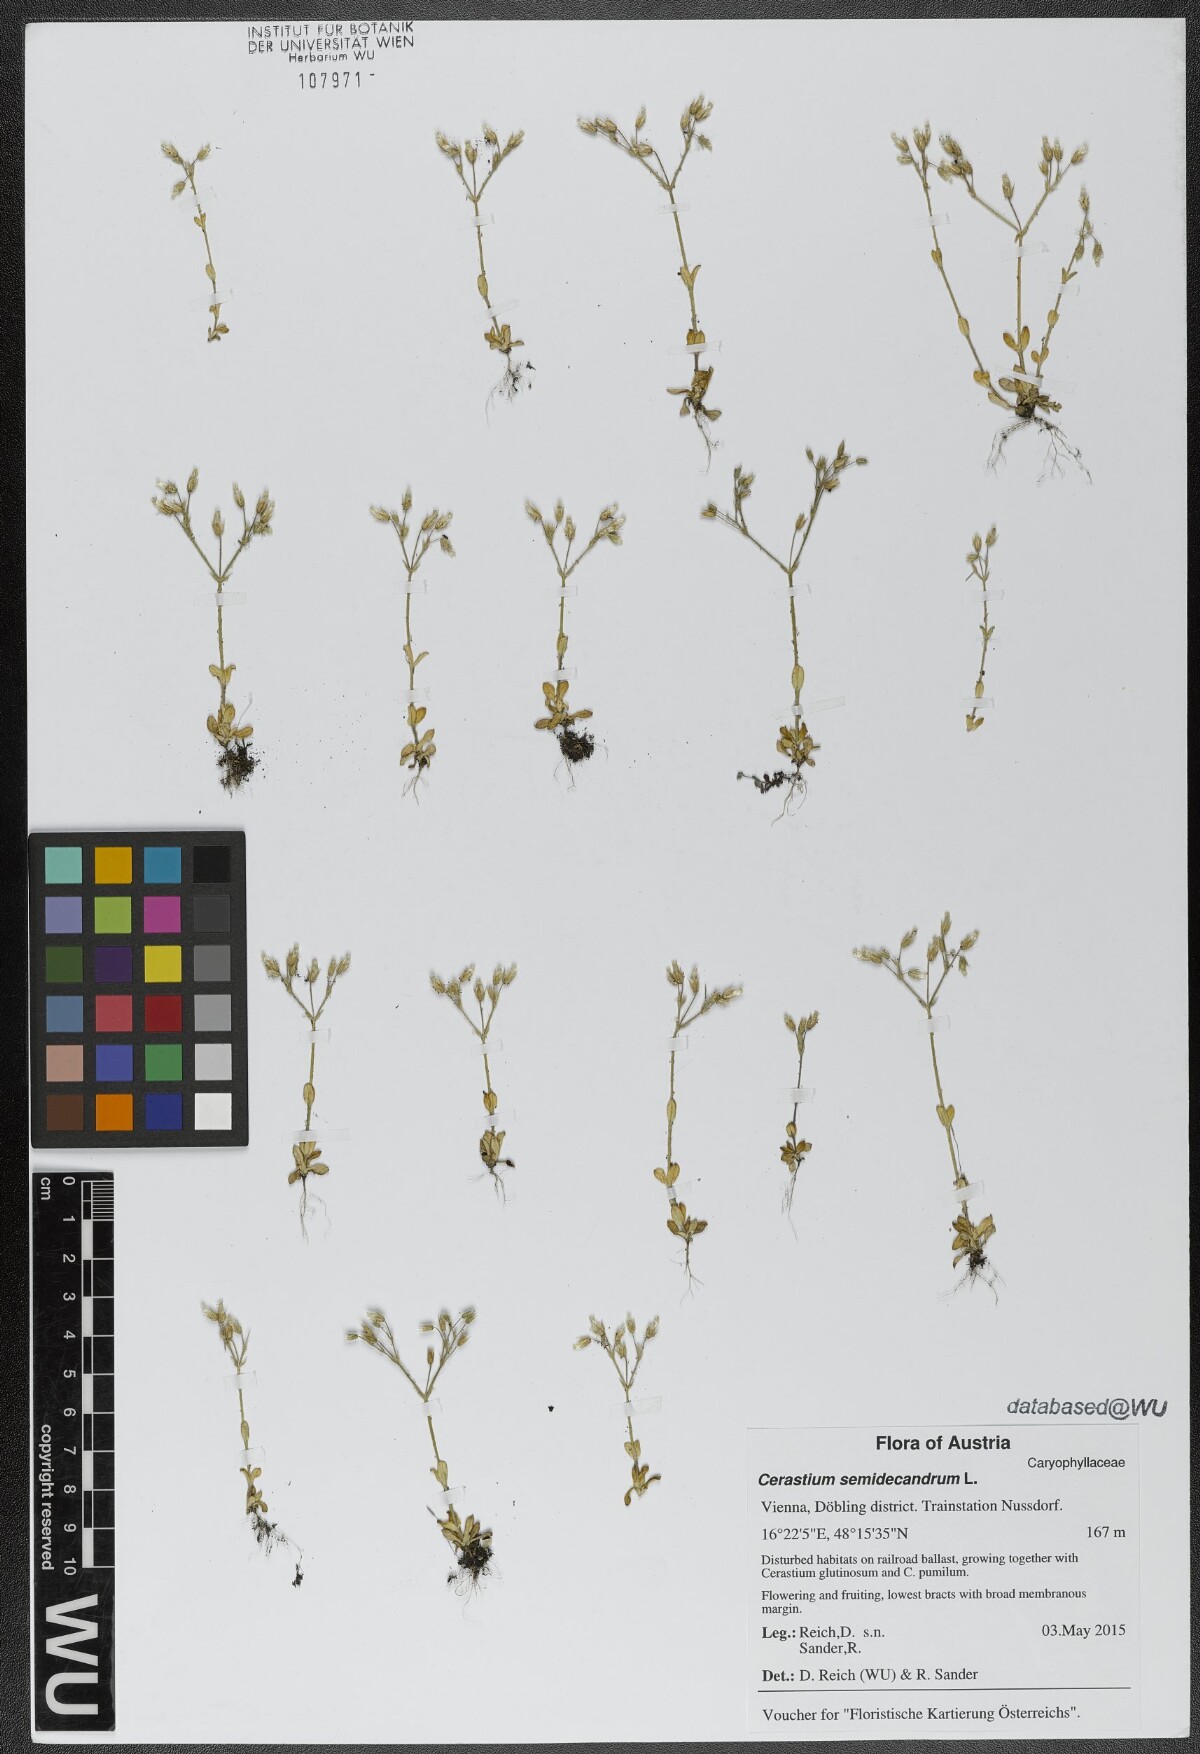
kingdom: Plantae
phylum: Tracheophyta
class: Magnoliopsida
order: Caryophyllales
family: Caryophyllaceae
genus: Cerastium
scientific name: Cerastium semidecandrum
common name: Little mouse-ear
